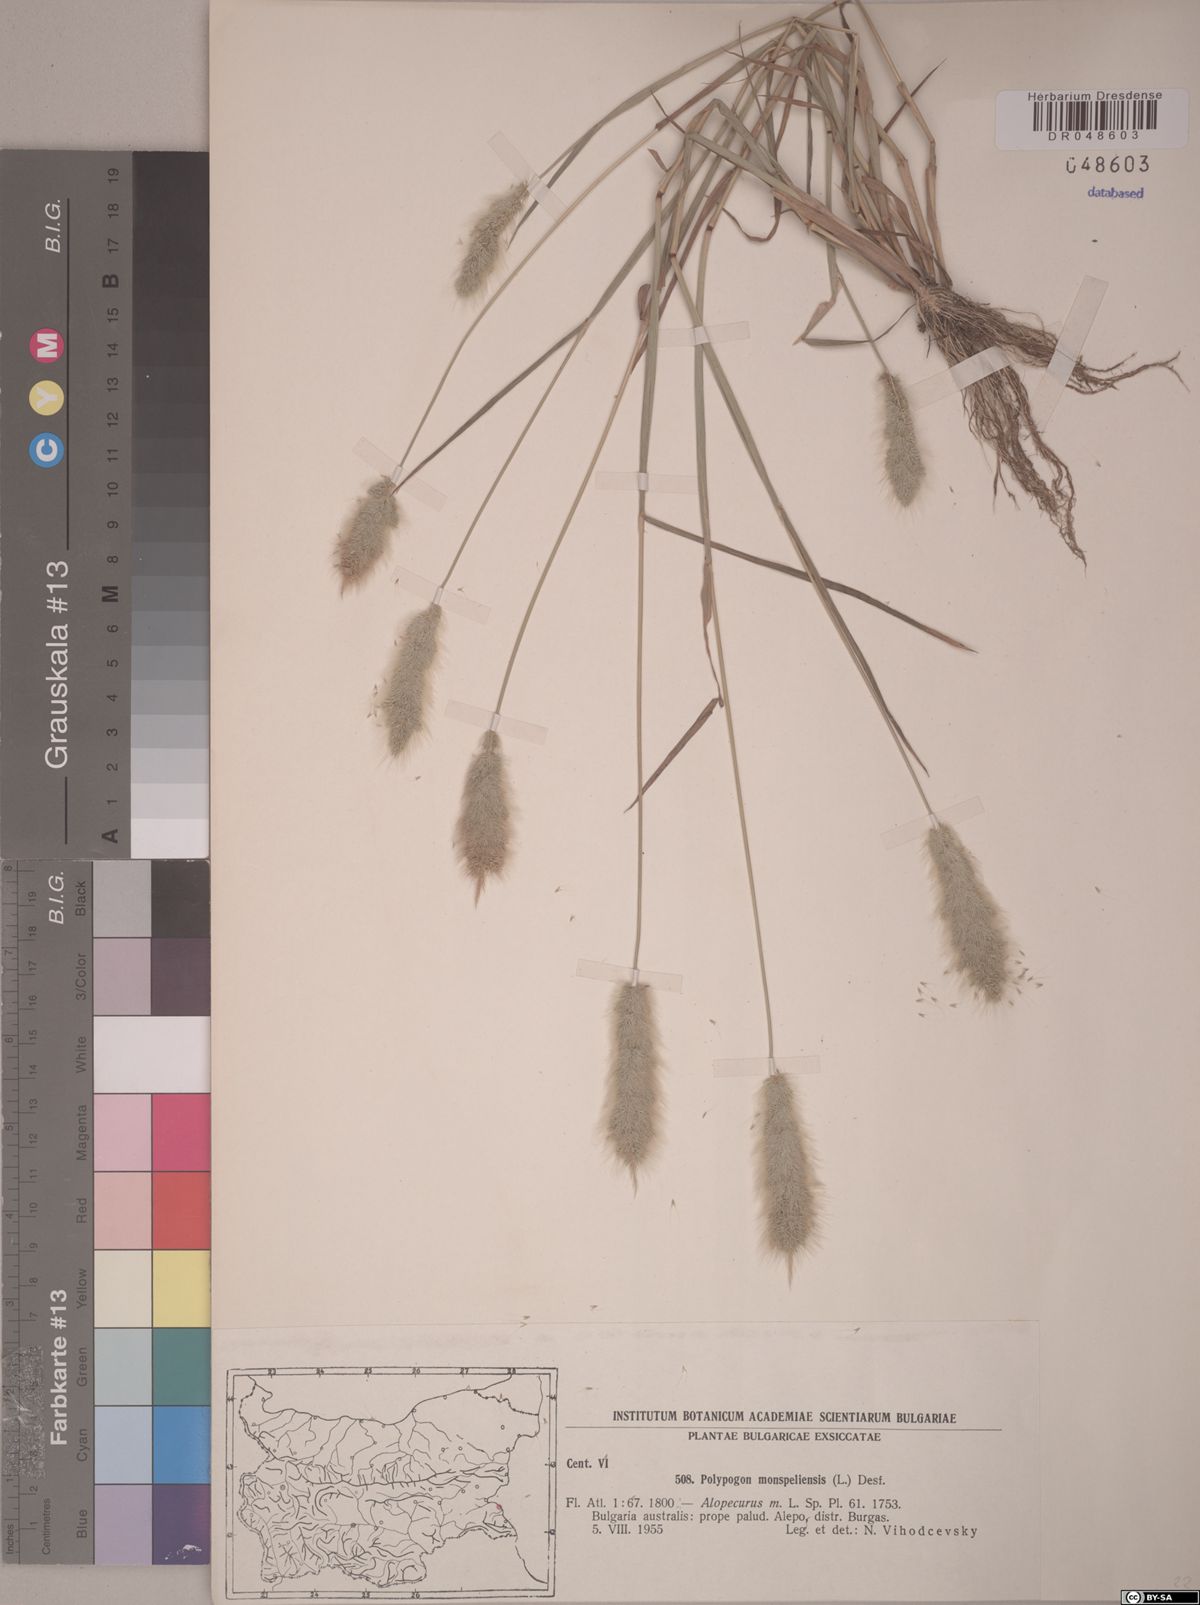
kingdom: Plantae
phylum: Tracheophyta
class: Liliopsida
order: Poales
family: Poaceae
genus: Polypogon
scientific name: Polypogon monspeliensis
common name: Annual rabbitsfoot grass
